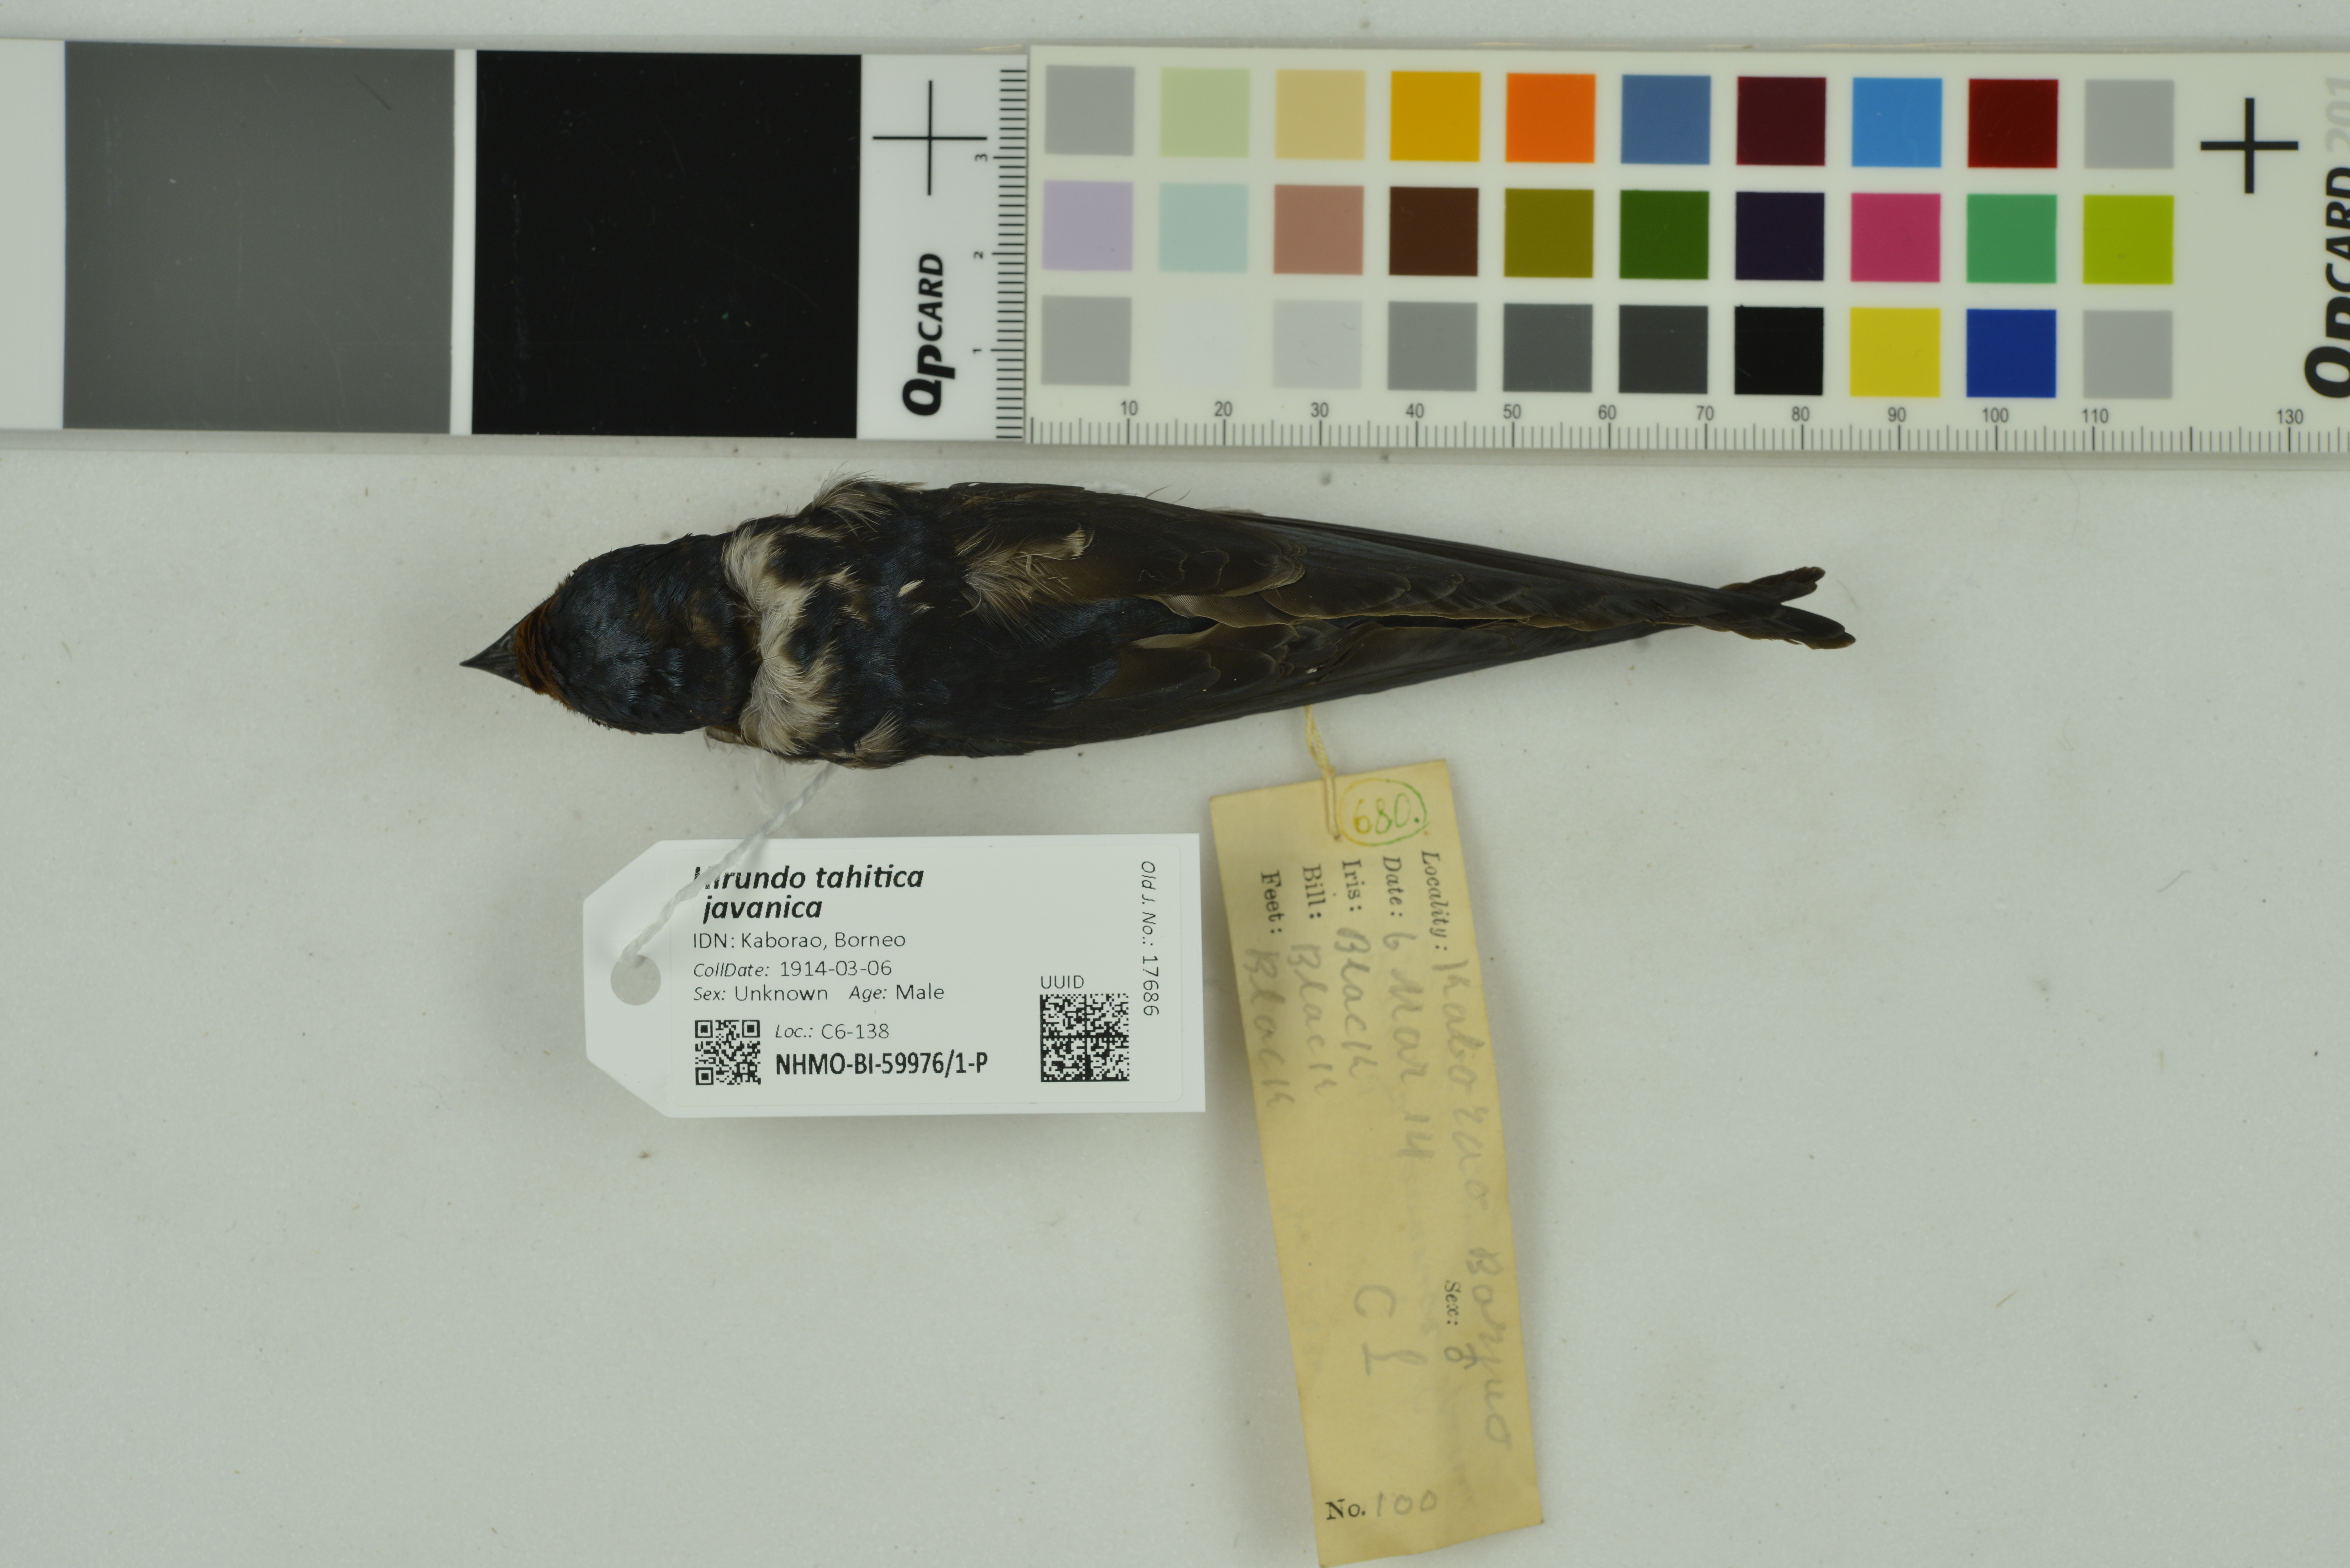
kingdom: Animalia
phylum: Chordata
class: Aves
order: Passeriformes
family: Hirundinidae
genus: Hirundo
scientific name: Hirundo tahitica
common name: Pacific swallow
